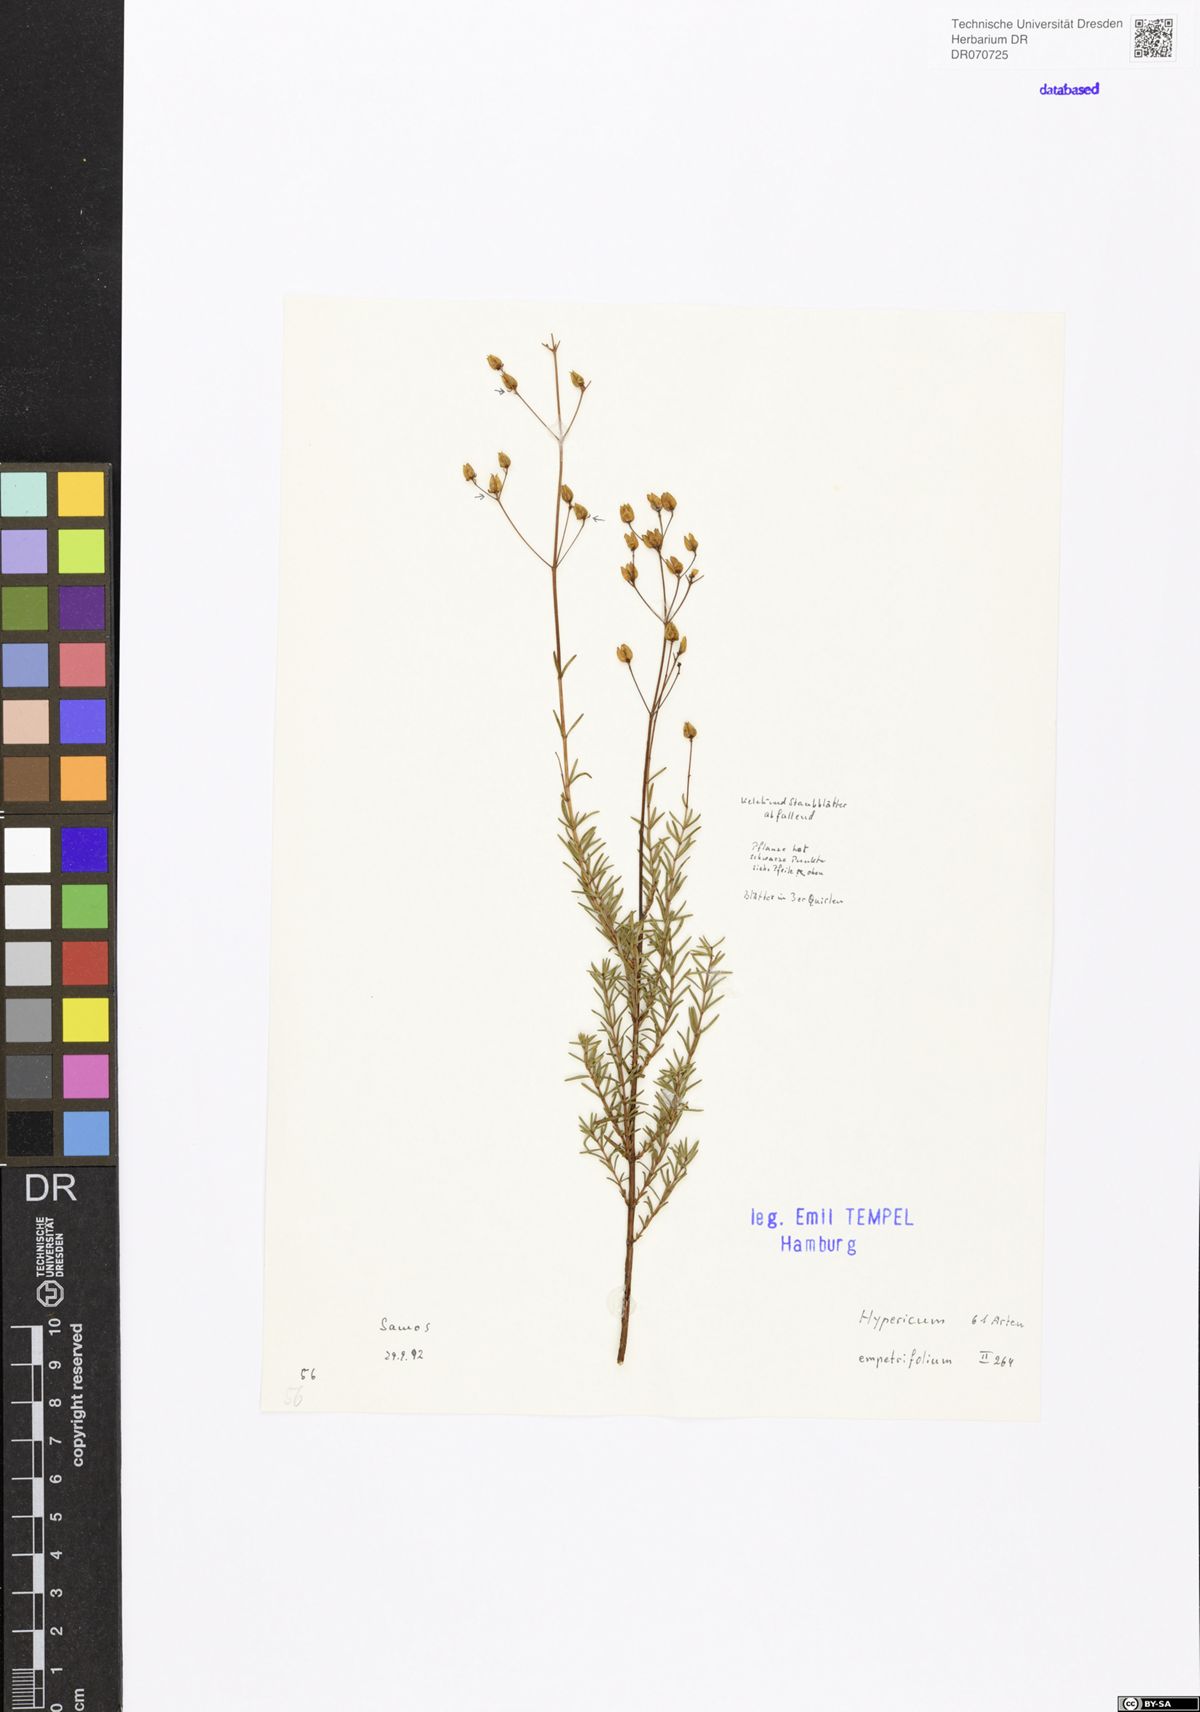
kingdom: Plantae
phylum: Tracheophyta
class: Magnoliopsida
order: Malpighiales
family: Hypericaceae
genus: Hypericum
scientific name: Hypericum empetrifolium
